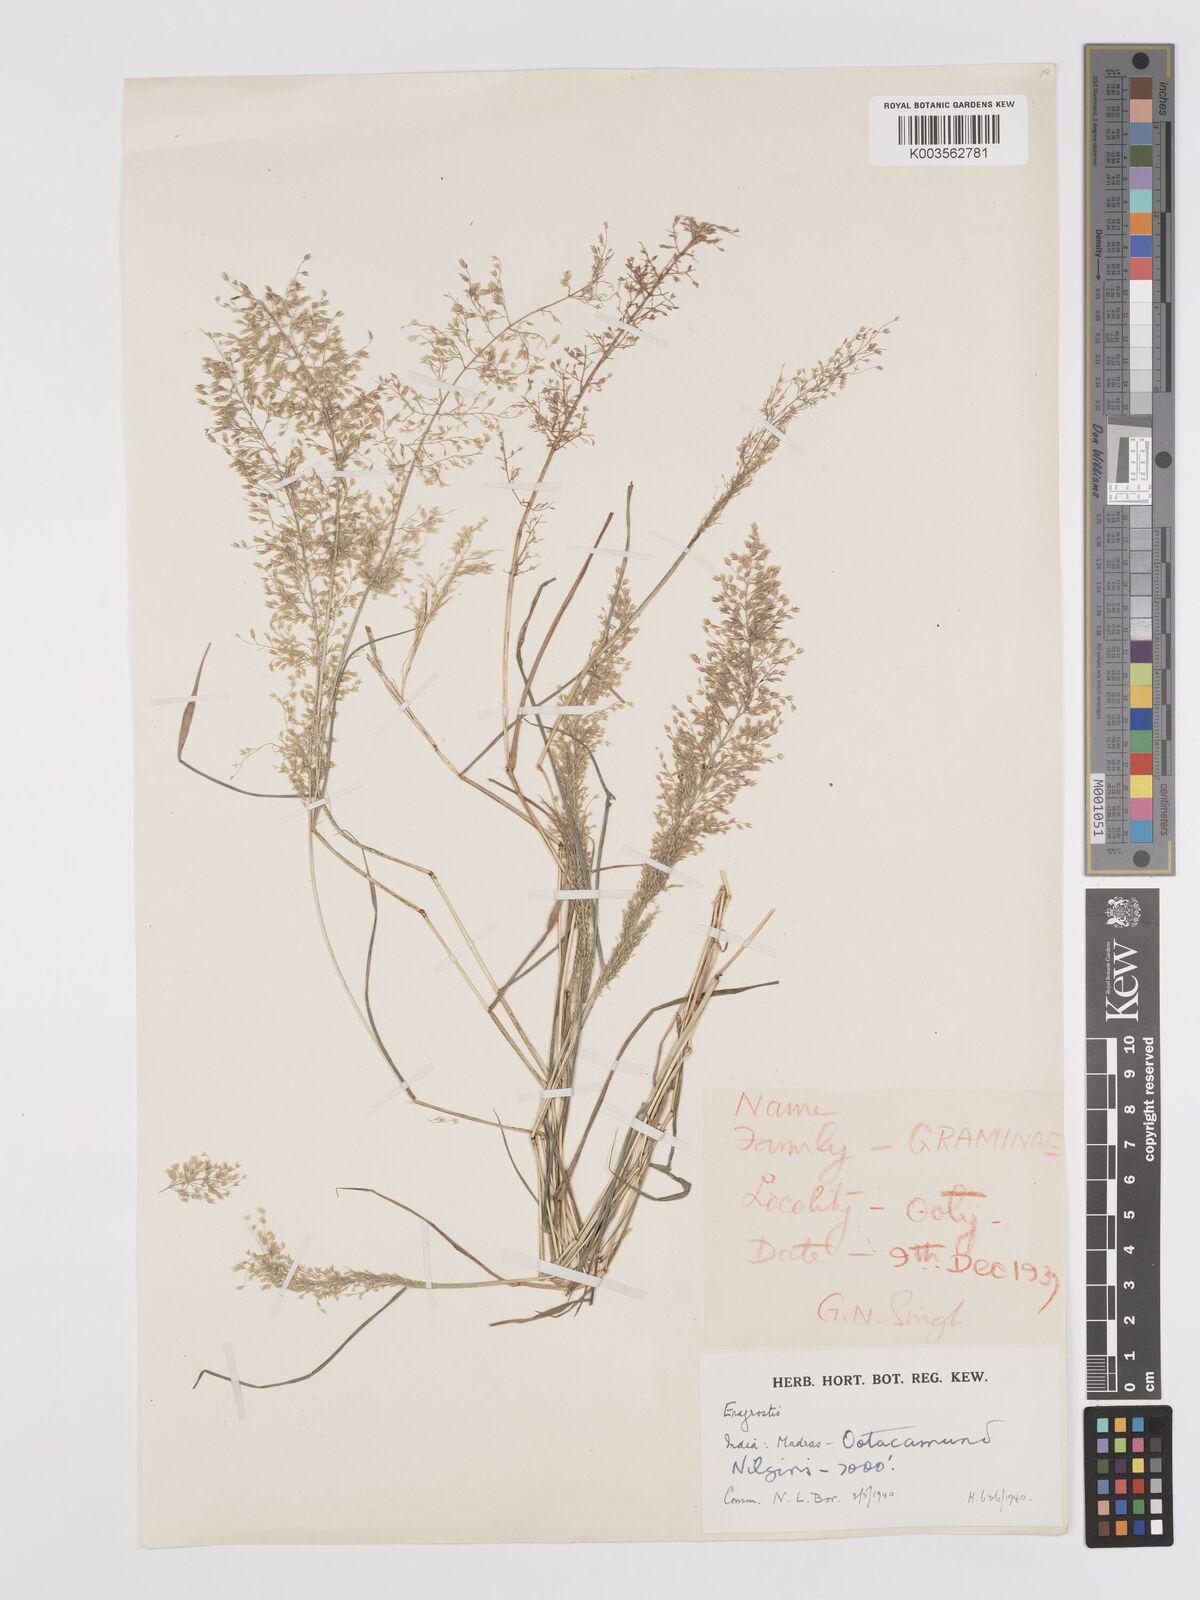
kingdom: Plantae
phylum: Tracheophyta
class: Liliopsida
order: Poales
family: Poaceae
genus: Eragrostis
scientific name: Eragrostis viscosa
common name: Sticky love grass
